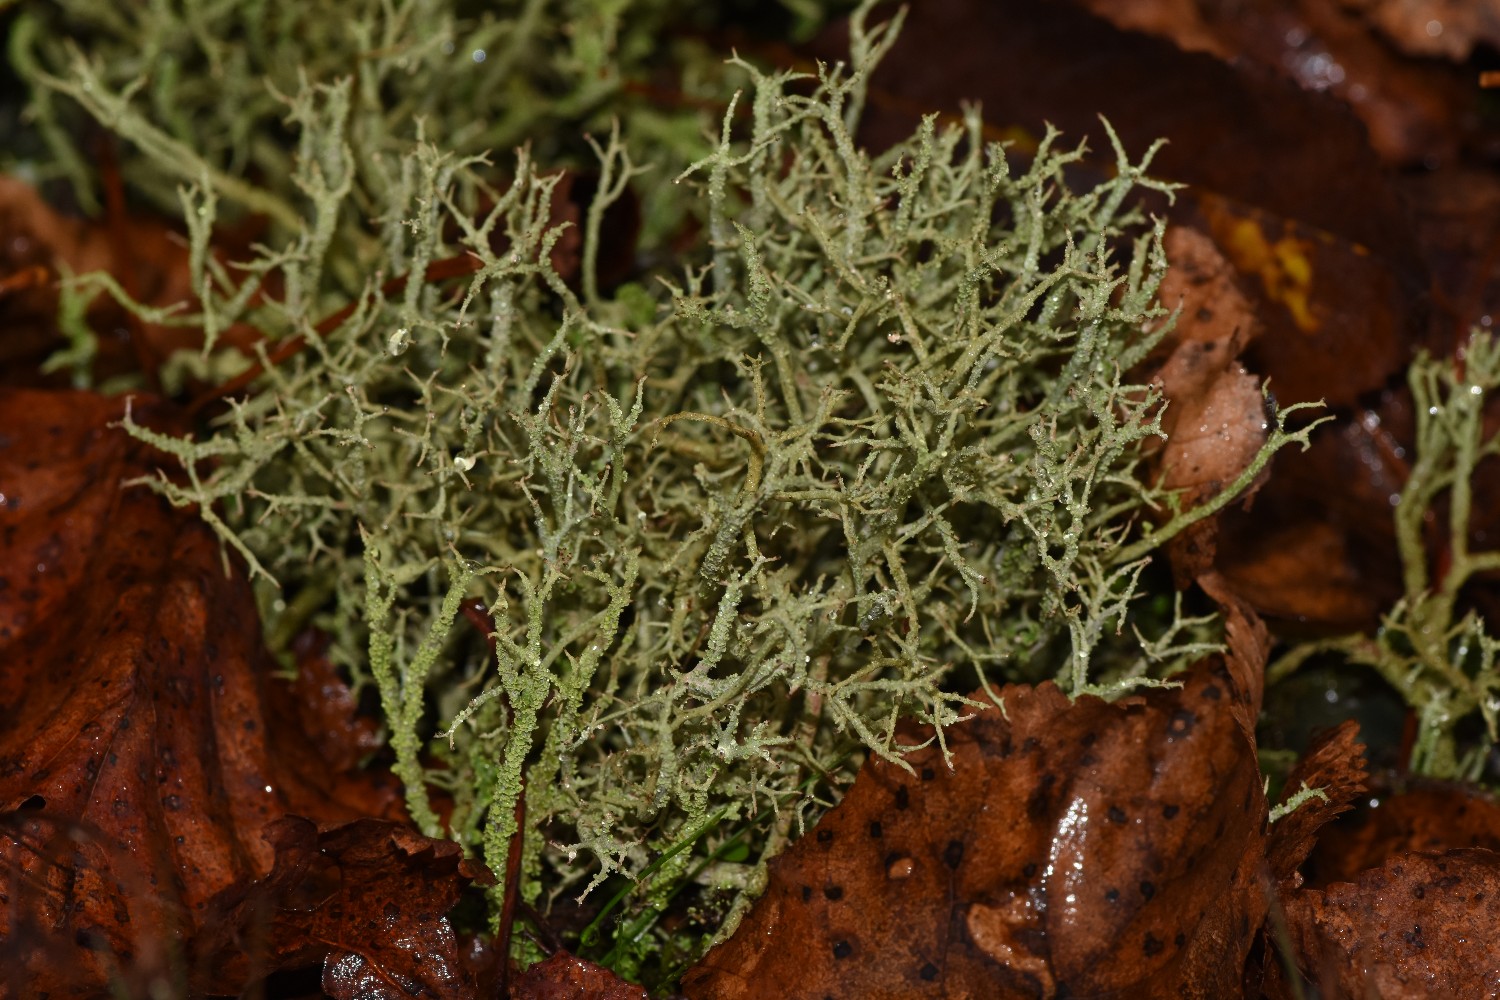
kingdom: Fungi
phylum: Ascomycota
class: Lecanoromycetes
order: Lecanorales
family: Cladoniaceae
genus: Cladonia
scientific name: Cladonia scabriuscula
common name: ru bægerlav
